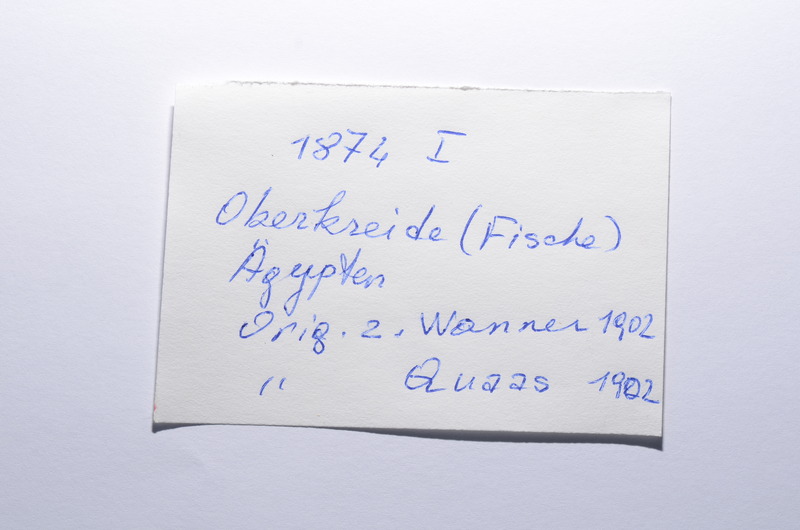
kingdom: Animalia
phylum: Chordata
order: Tetraodontiformes
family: Trigonodontidae
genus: Stephanodus
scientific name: Stephanodus Ancistrodon lybicus
